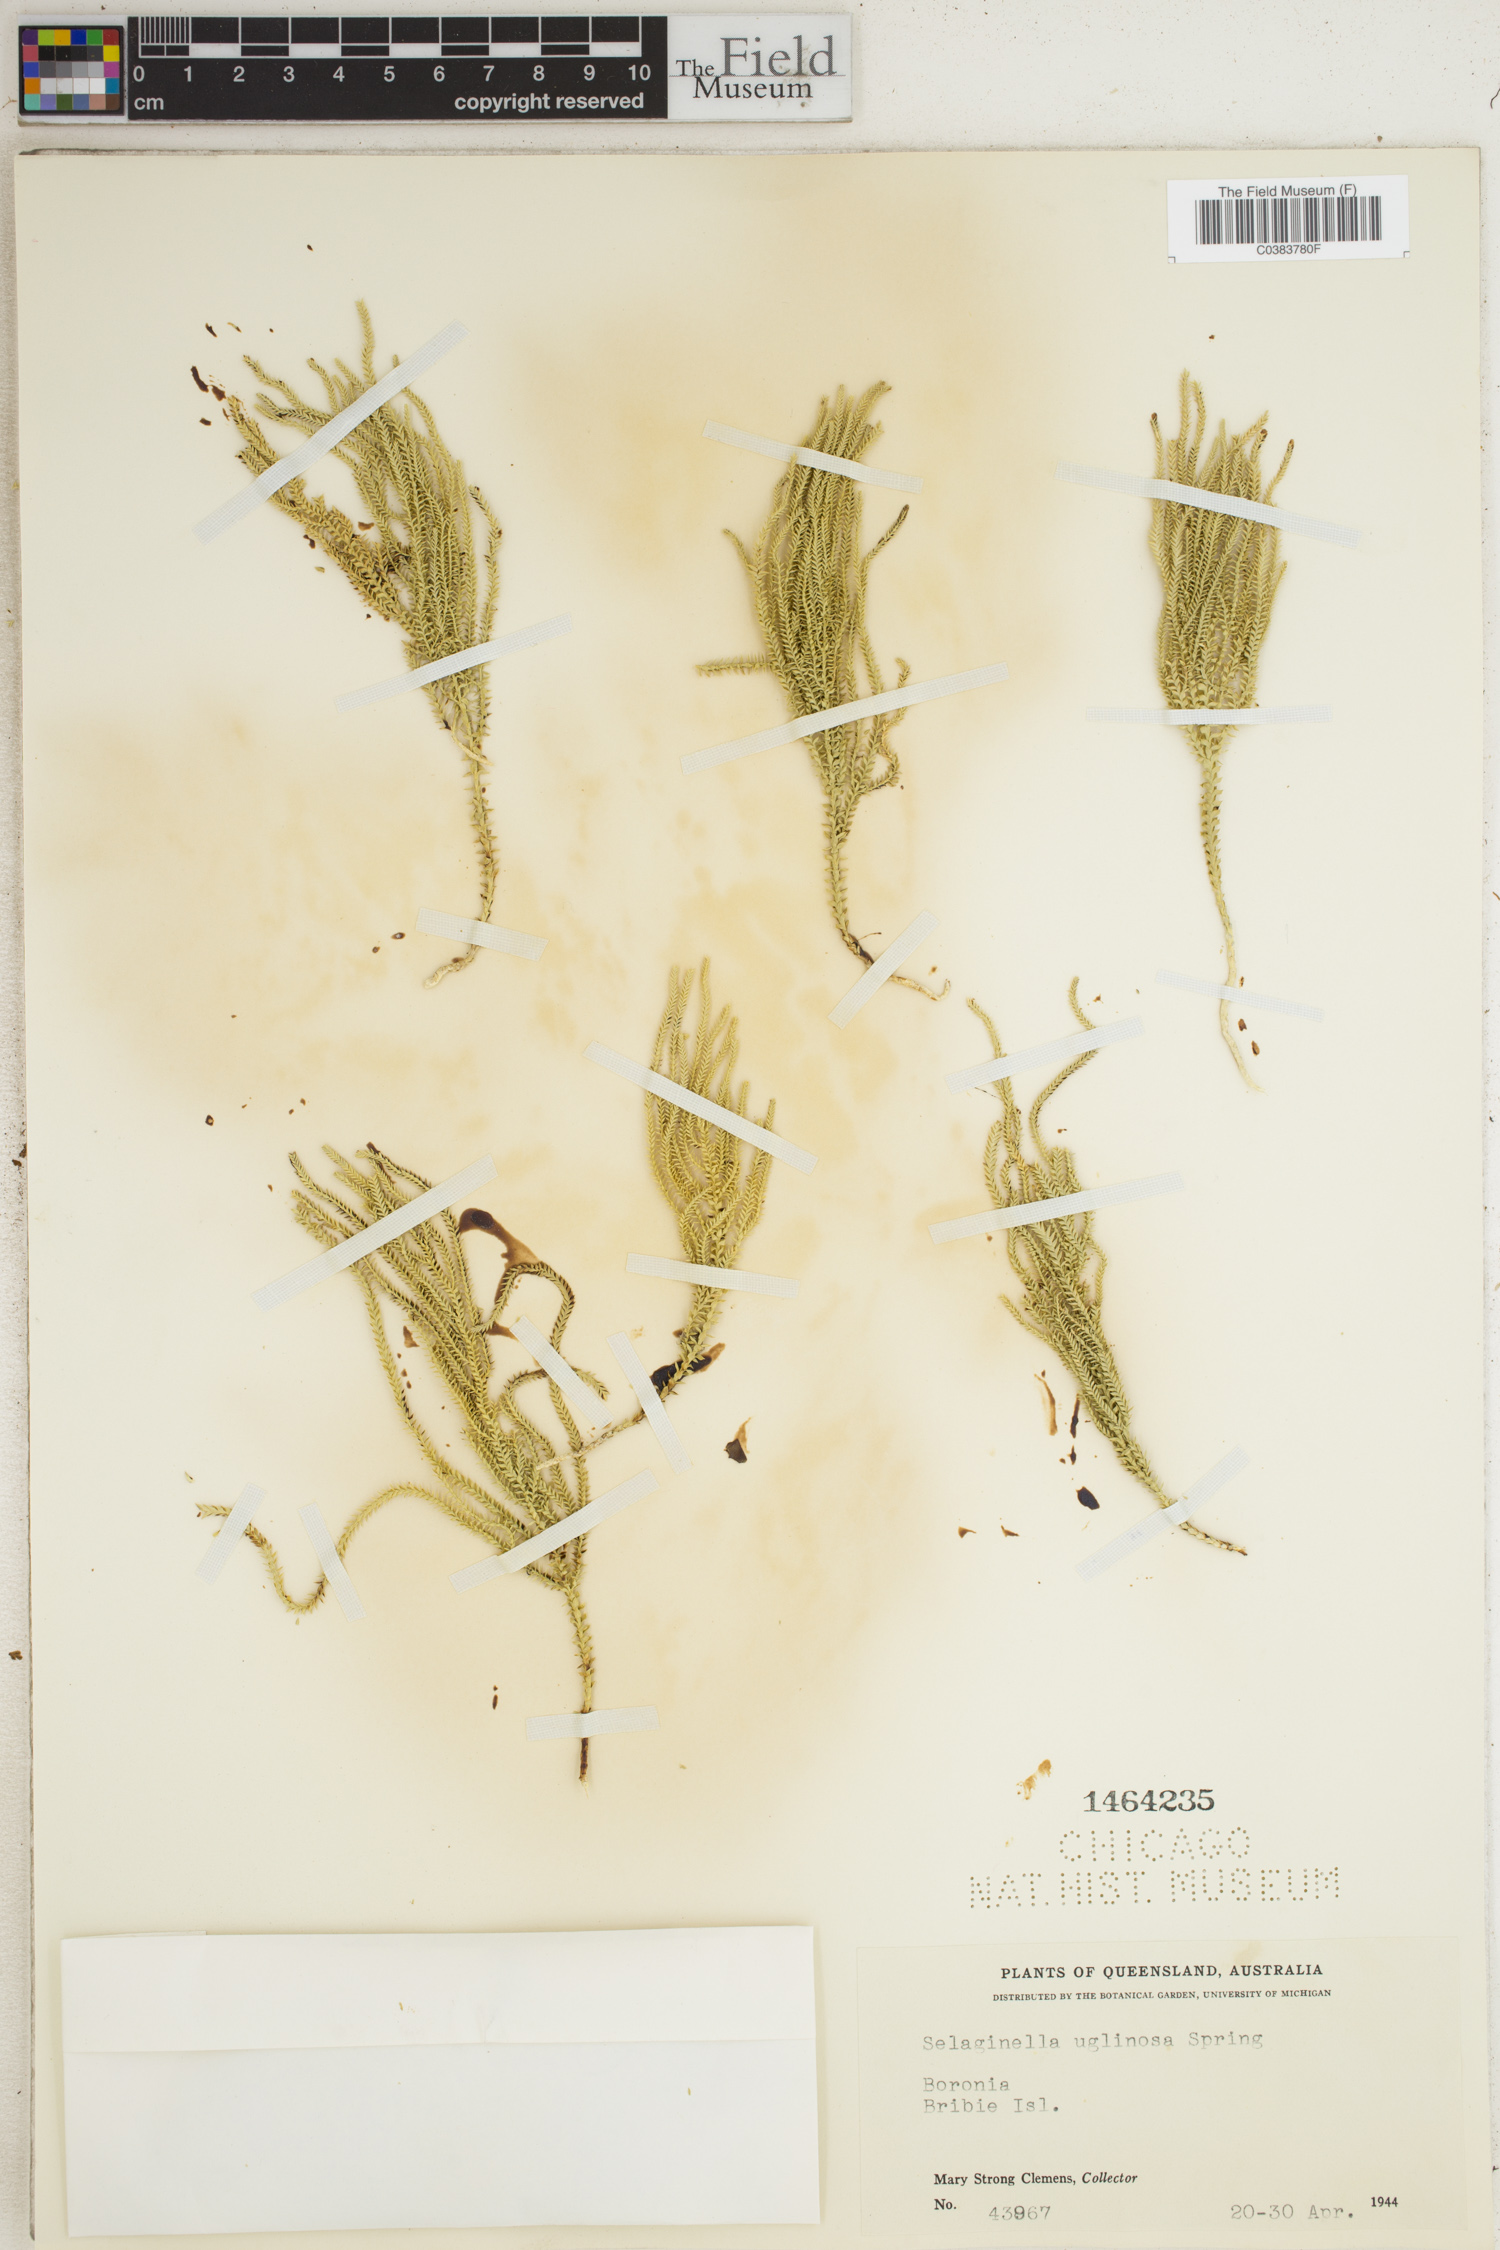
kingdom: Plantae
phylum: Tracheophyta
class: Lycopodiopsida
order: Selaginellales
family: Selaginellaceae
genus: Selaginella
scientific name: Selaginella uliginosa
